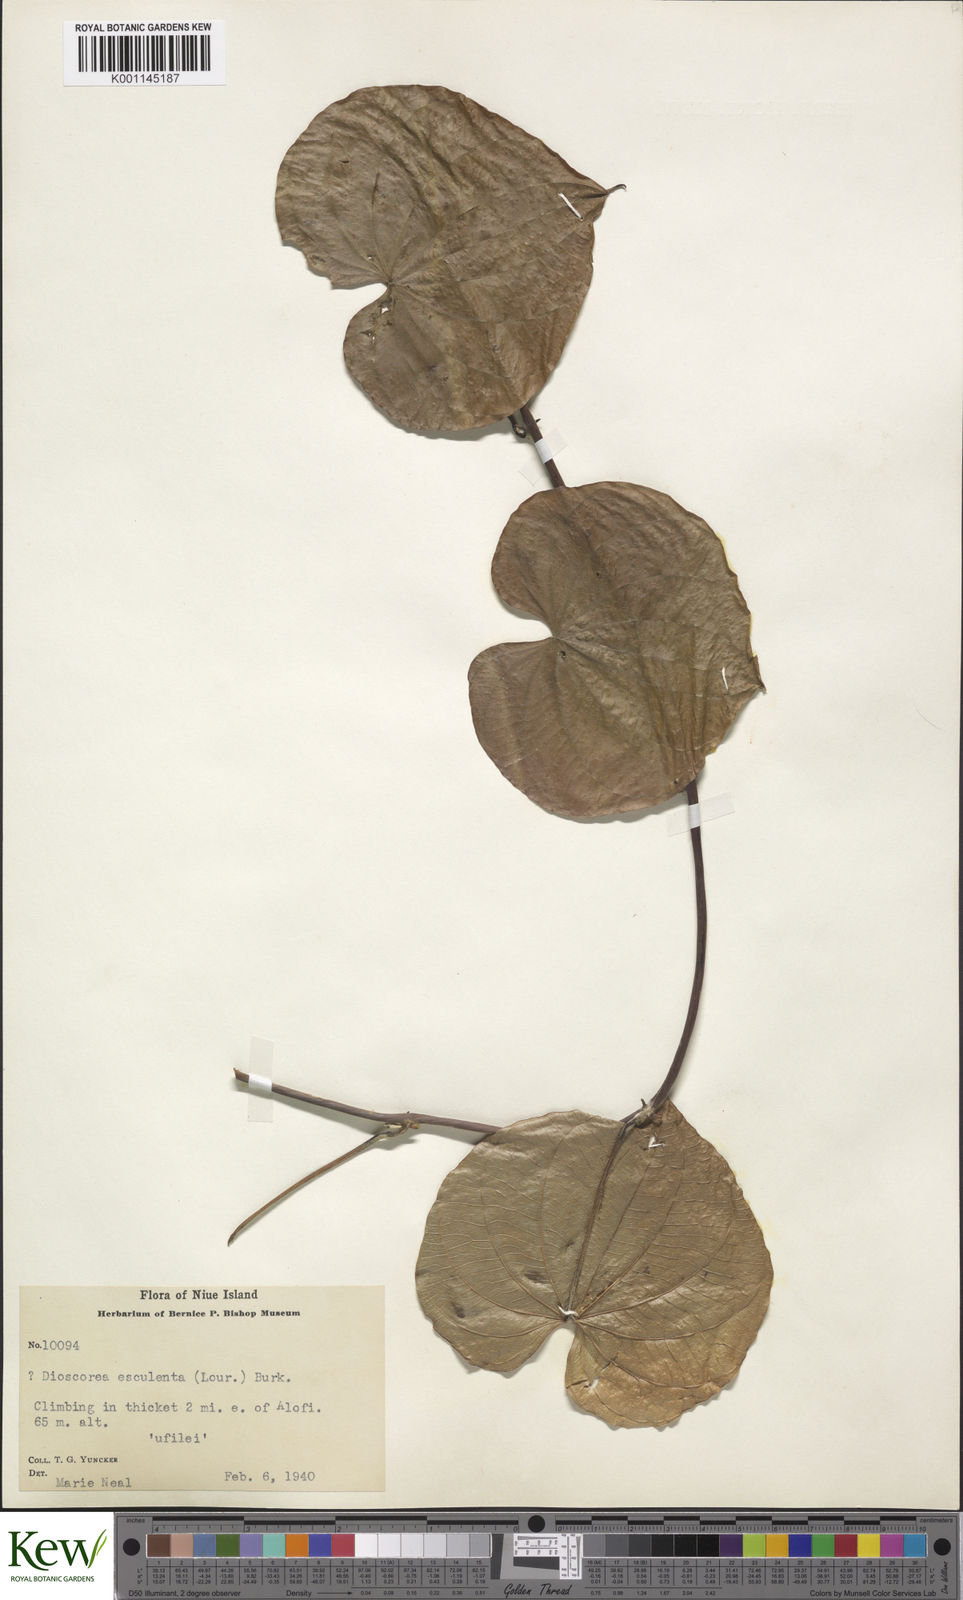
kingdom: Plantae
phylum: Tracheophyta
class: Liliopsida
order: Dioscoreales
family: Dioscoreaceae
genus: Dioscorea
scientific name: Dioscorea esculenta
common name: Chinese yam
